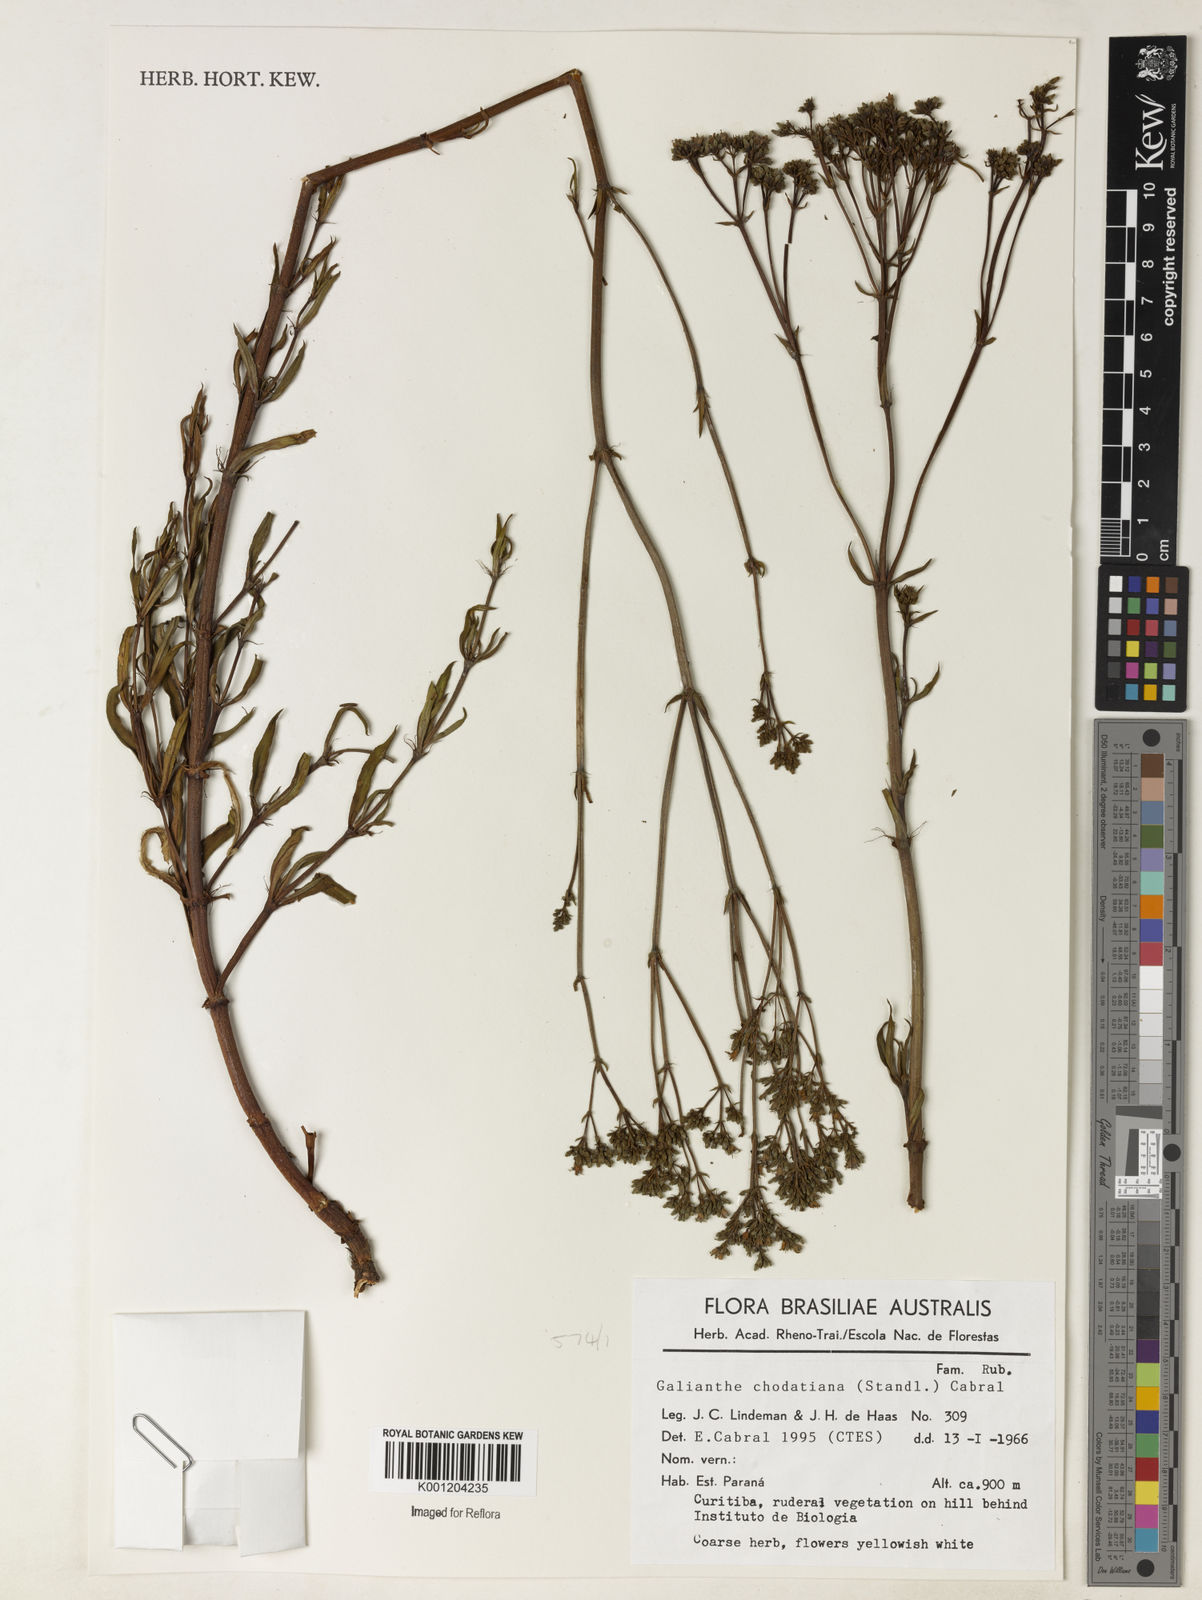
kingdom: Plantae
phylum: Tracheophyta
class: Magnoliopsida
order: Gentianales
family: Rubiaceae
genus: Galianthe
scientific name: Galianthe chodatiana
